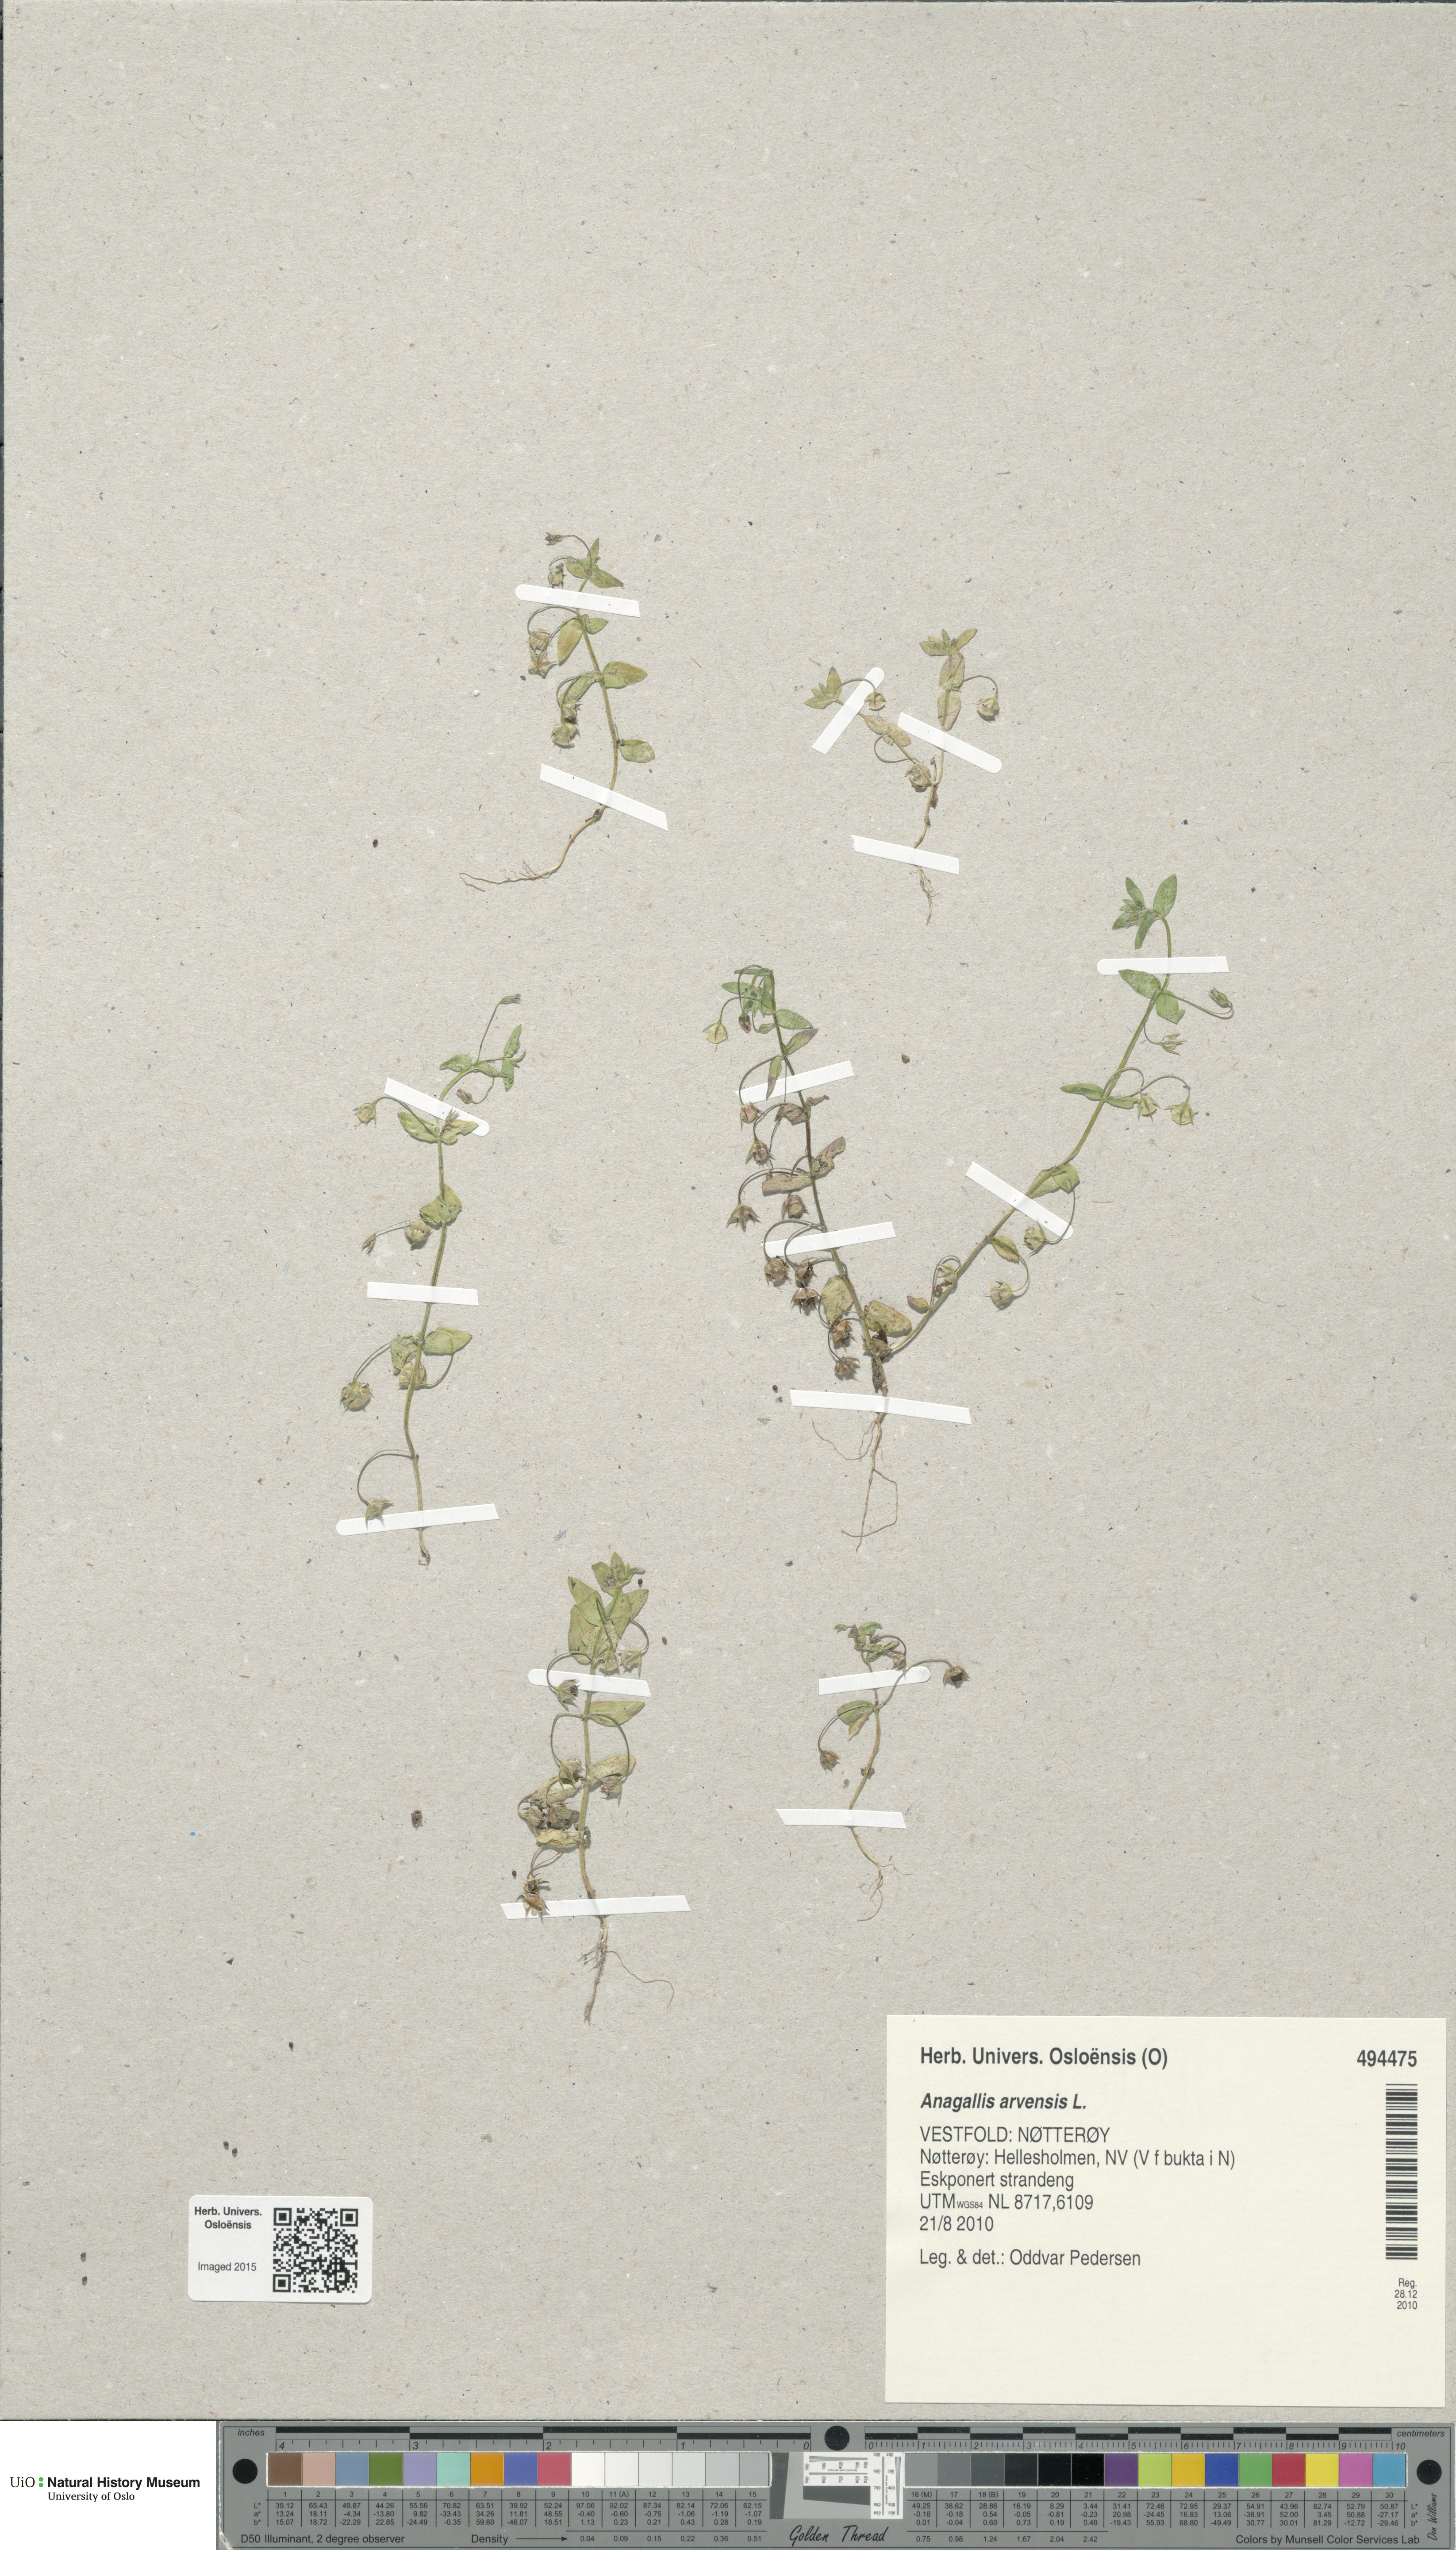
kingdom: Plantae
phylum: Tracheophyta
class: Magnoliopsida
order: Ericales
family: Primulaceae
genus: Lysimachia
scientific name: Lysimachia arvensis
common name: Scarlet pimpernel
